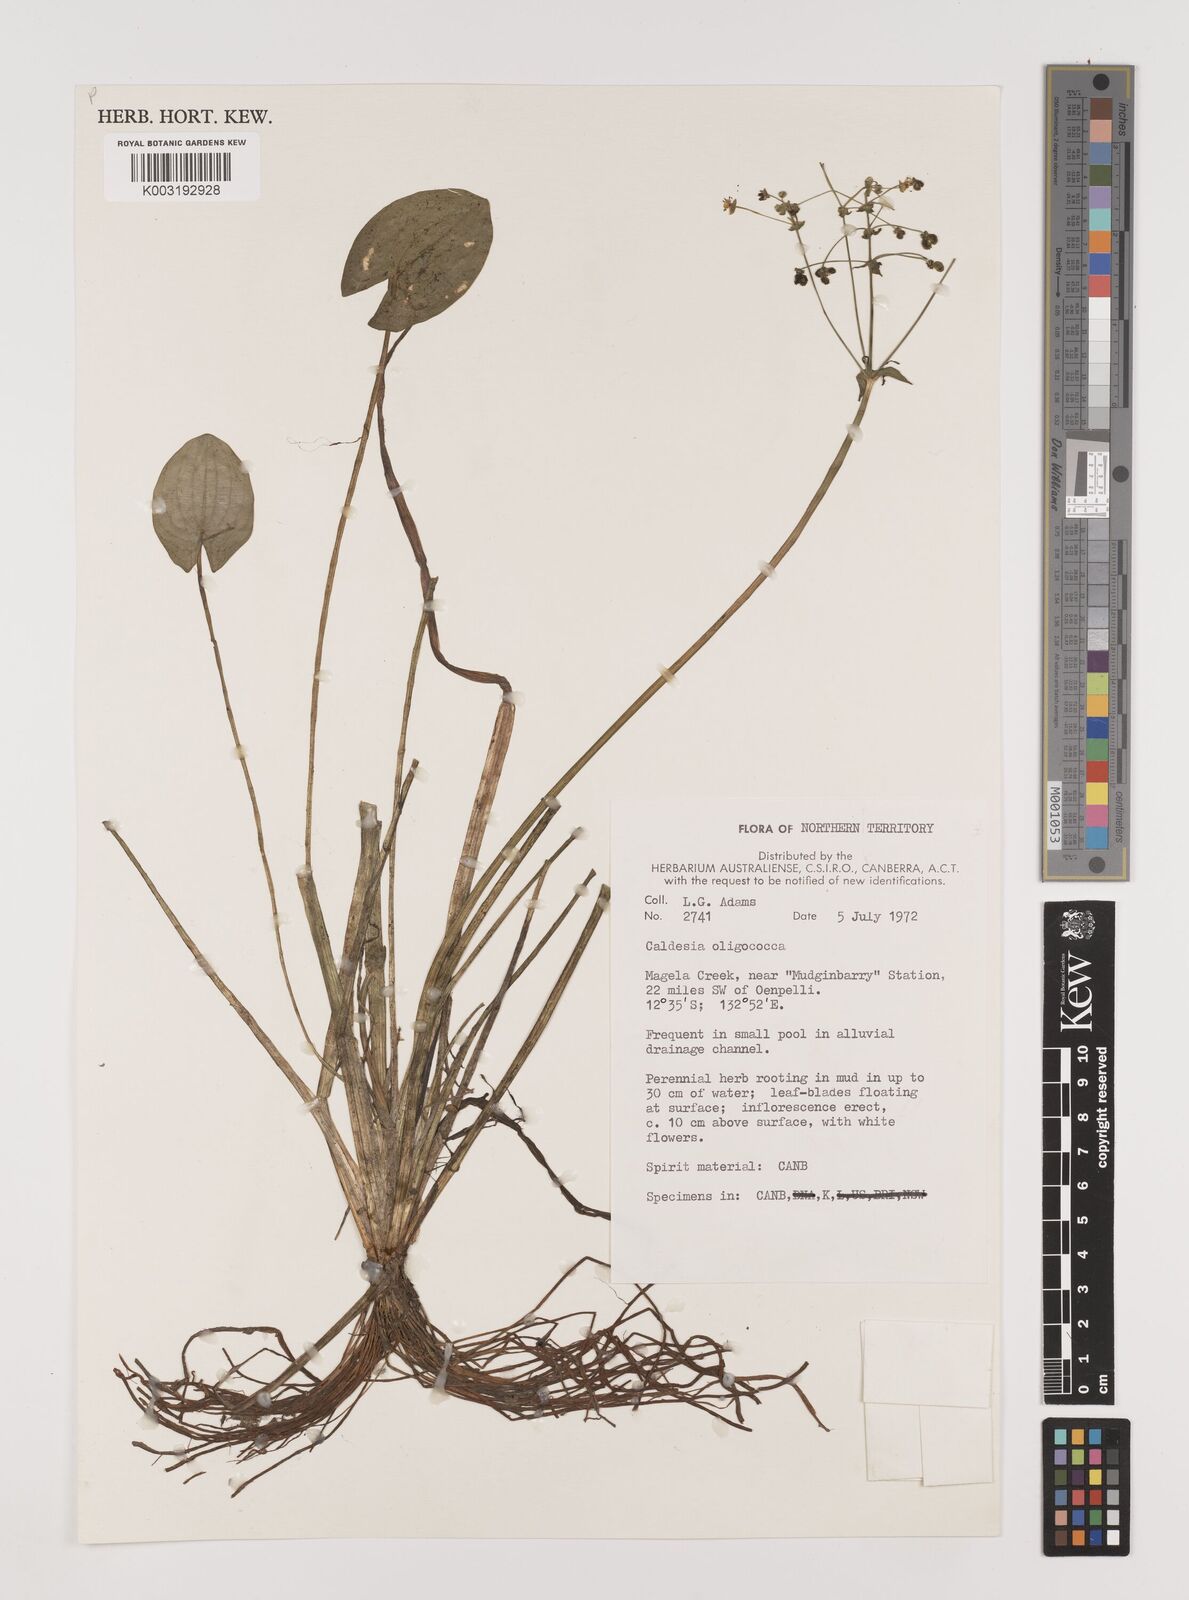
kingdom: Plantae
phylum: Tracheophyta
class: Liliopsida
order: Alismatales
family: Alismataceae
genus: Albidella
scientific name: Albidella oligococca
